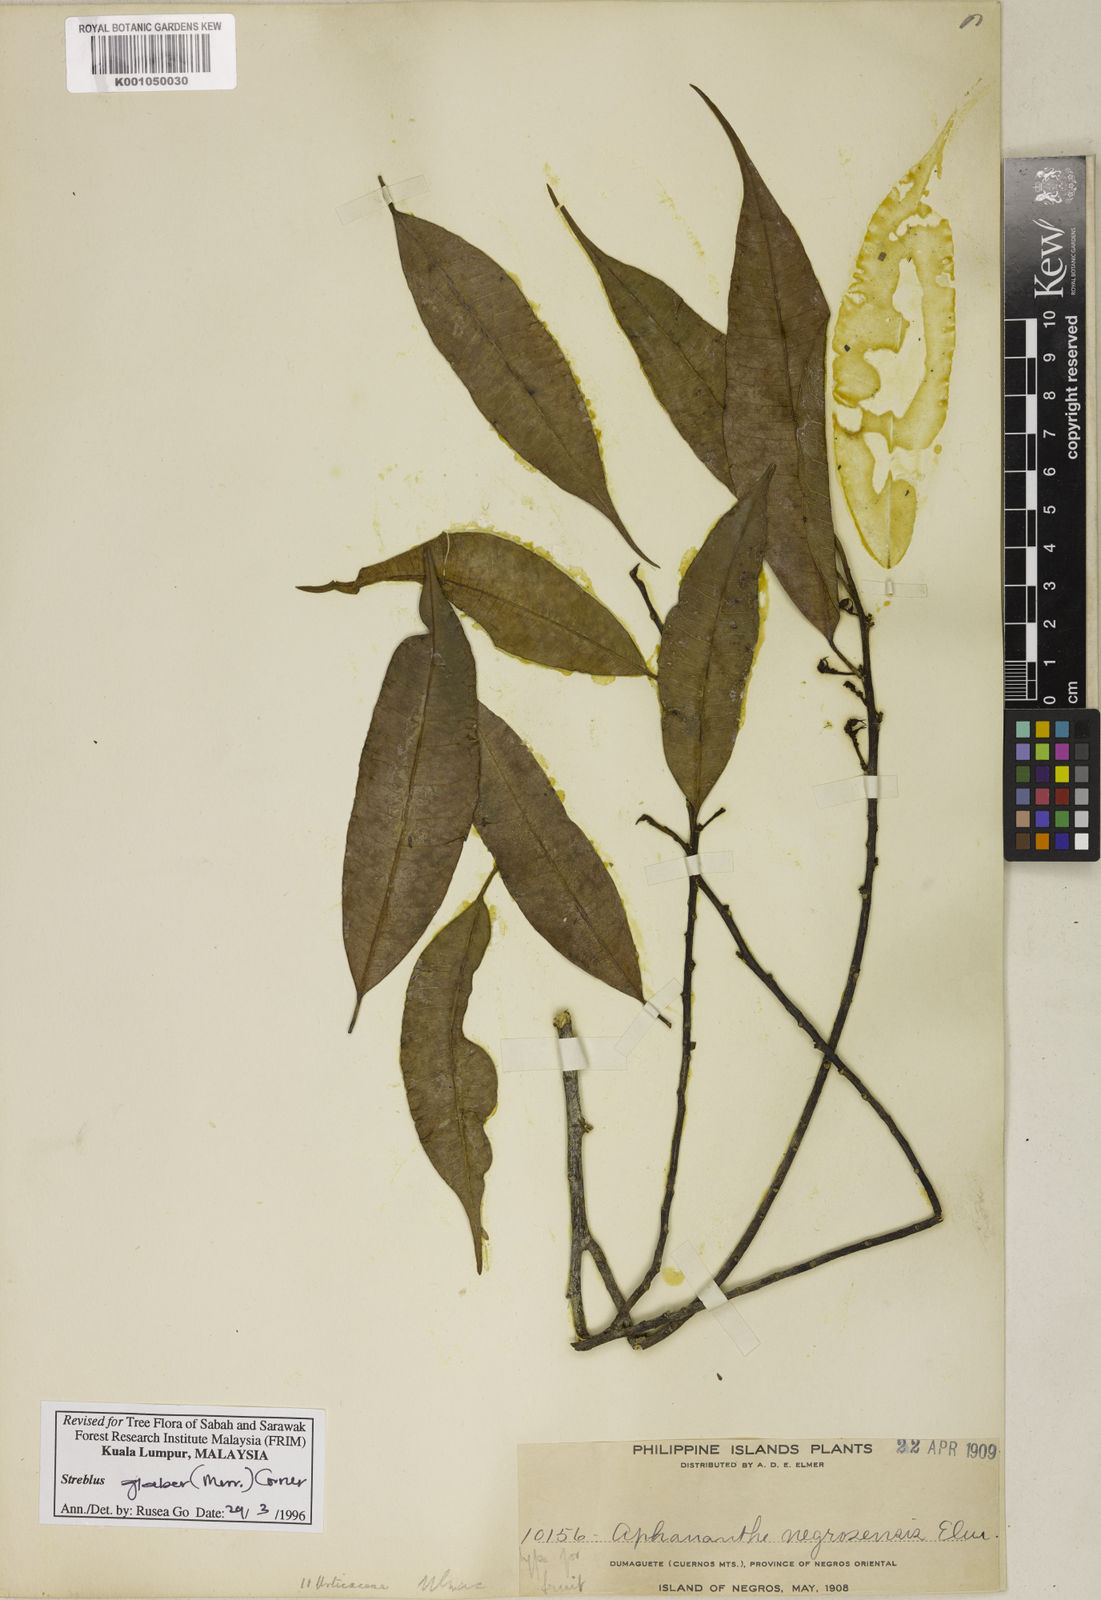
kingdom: Plantae
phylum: Tracheophyta
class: Magnoliopsida
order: Rosales
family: Moraceae
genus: Paratrophis
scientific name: Paratrophis glabra
